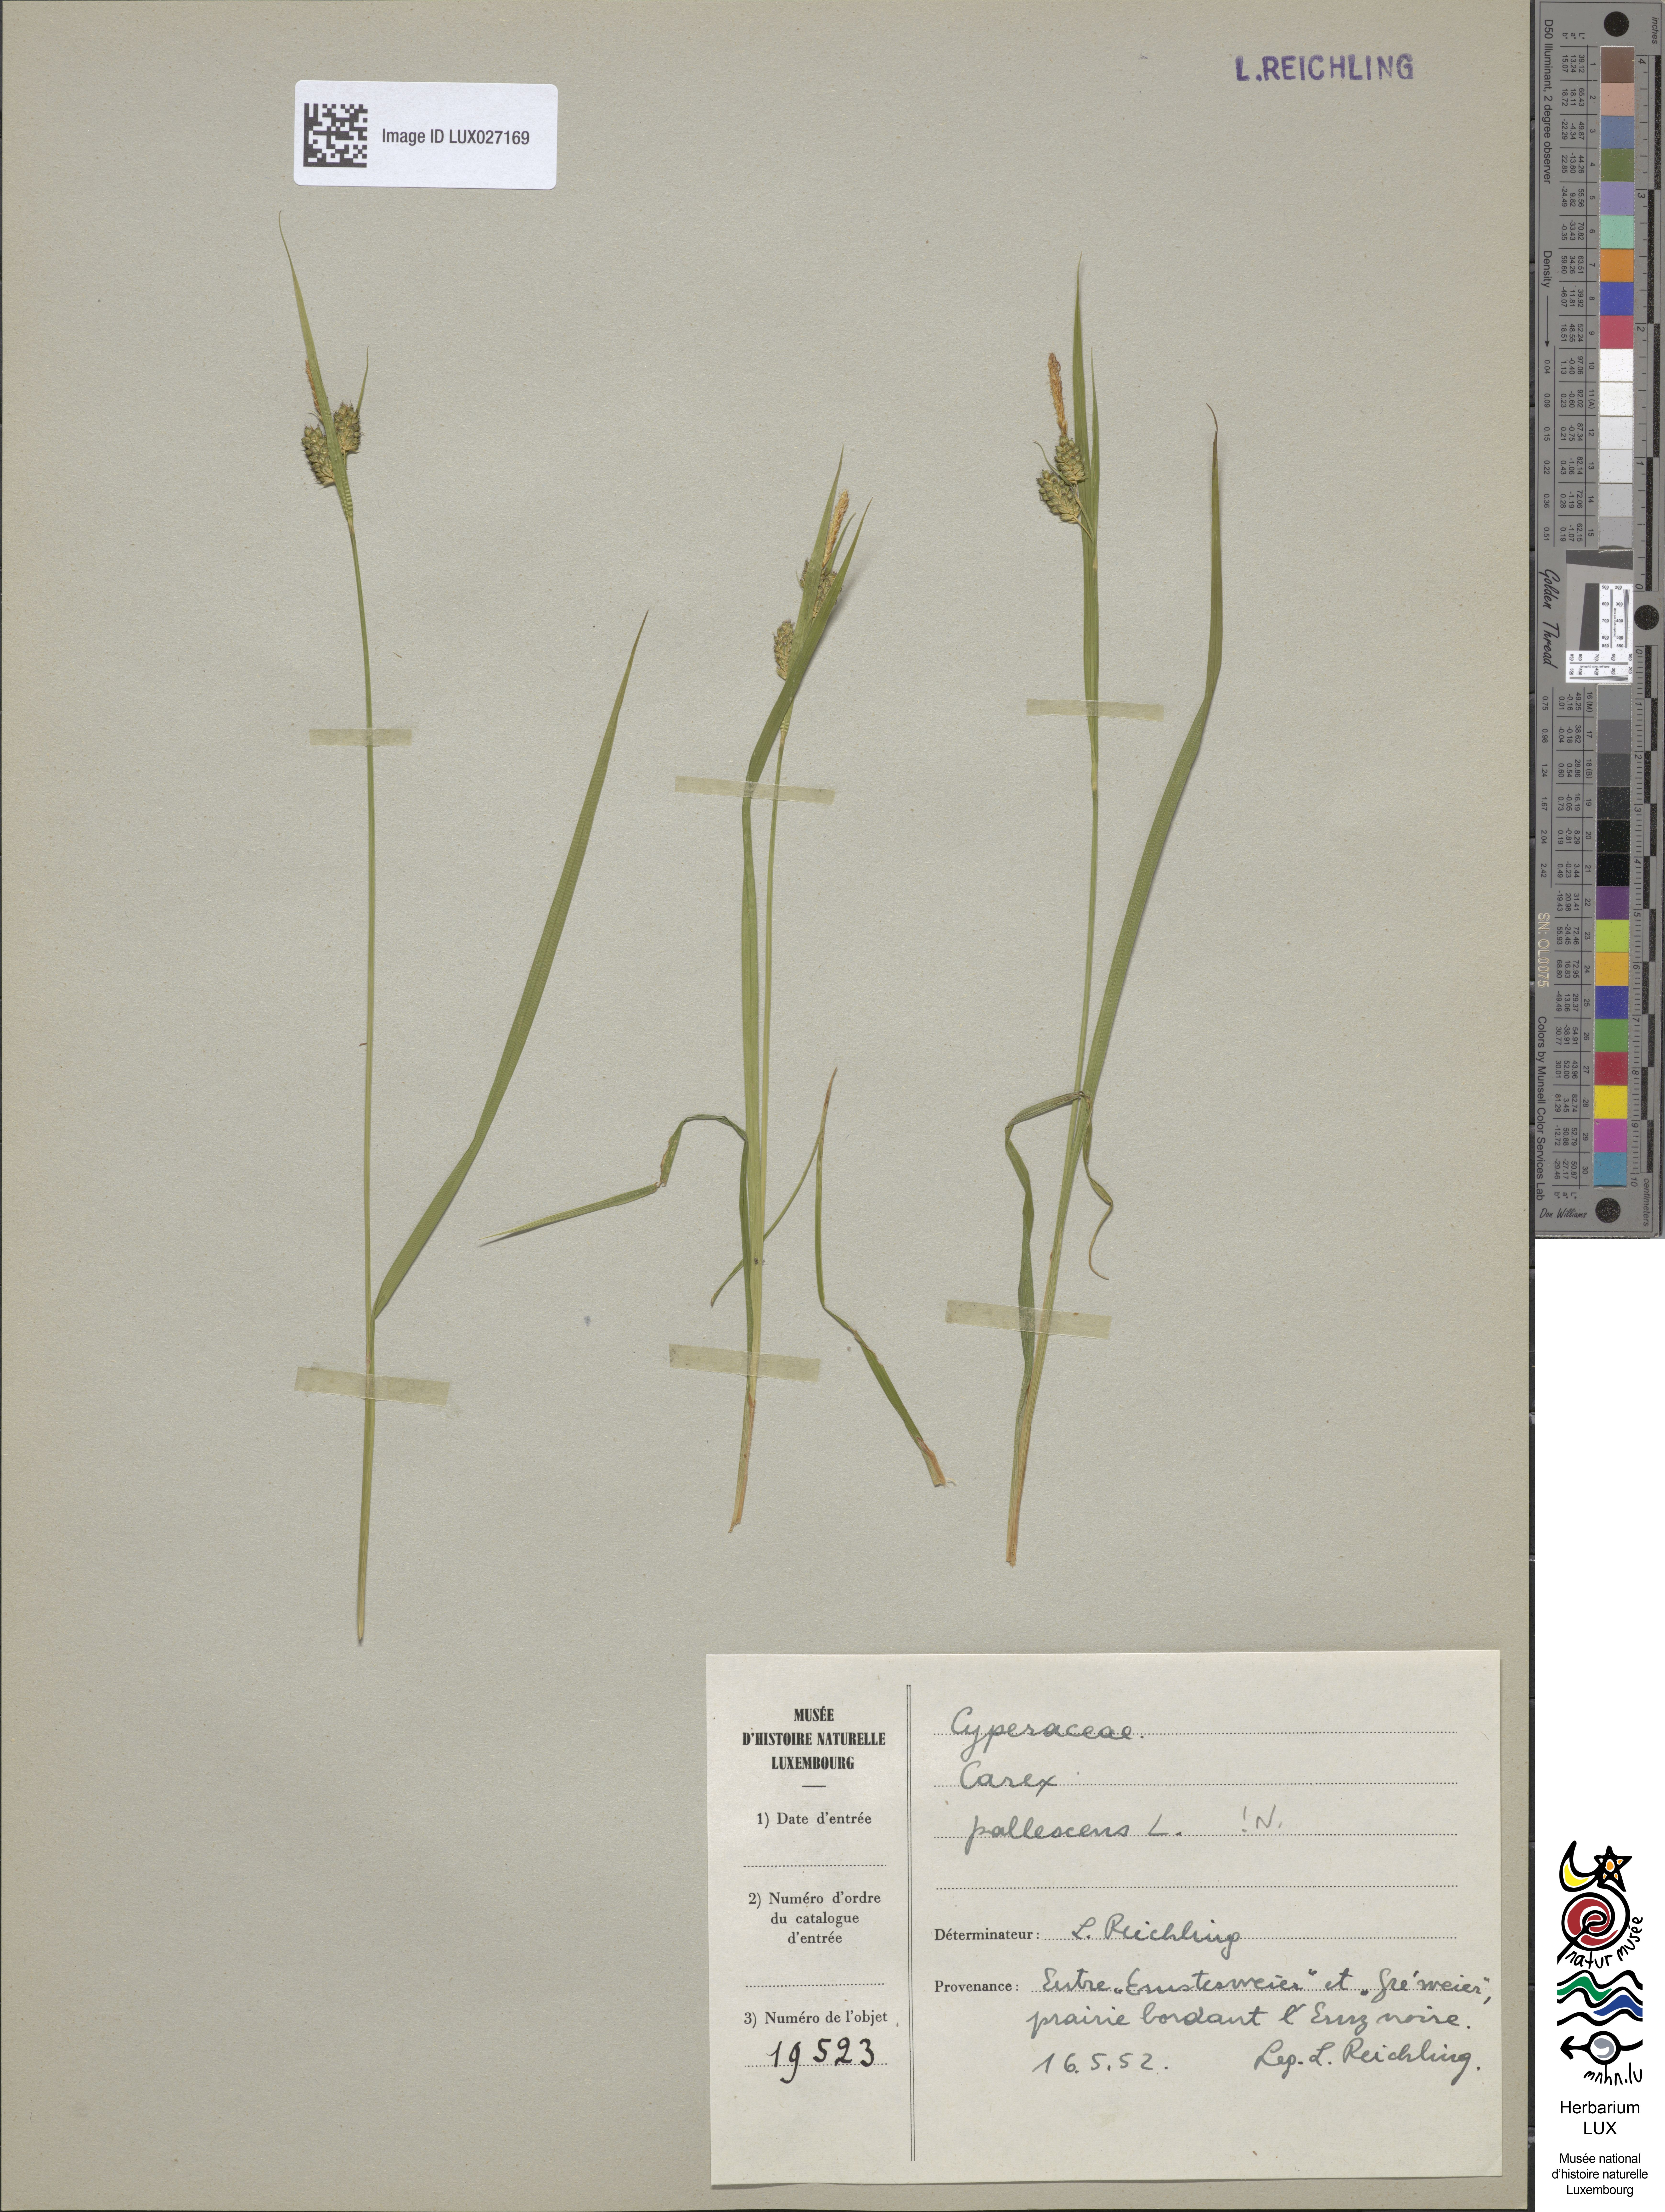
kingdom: Plantae
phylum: Tracheophyta
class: Liliopsida
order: Poales
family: Cyperaceae
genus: Carex
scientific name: Carex pallescens
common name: Pale sedge
